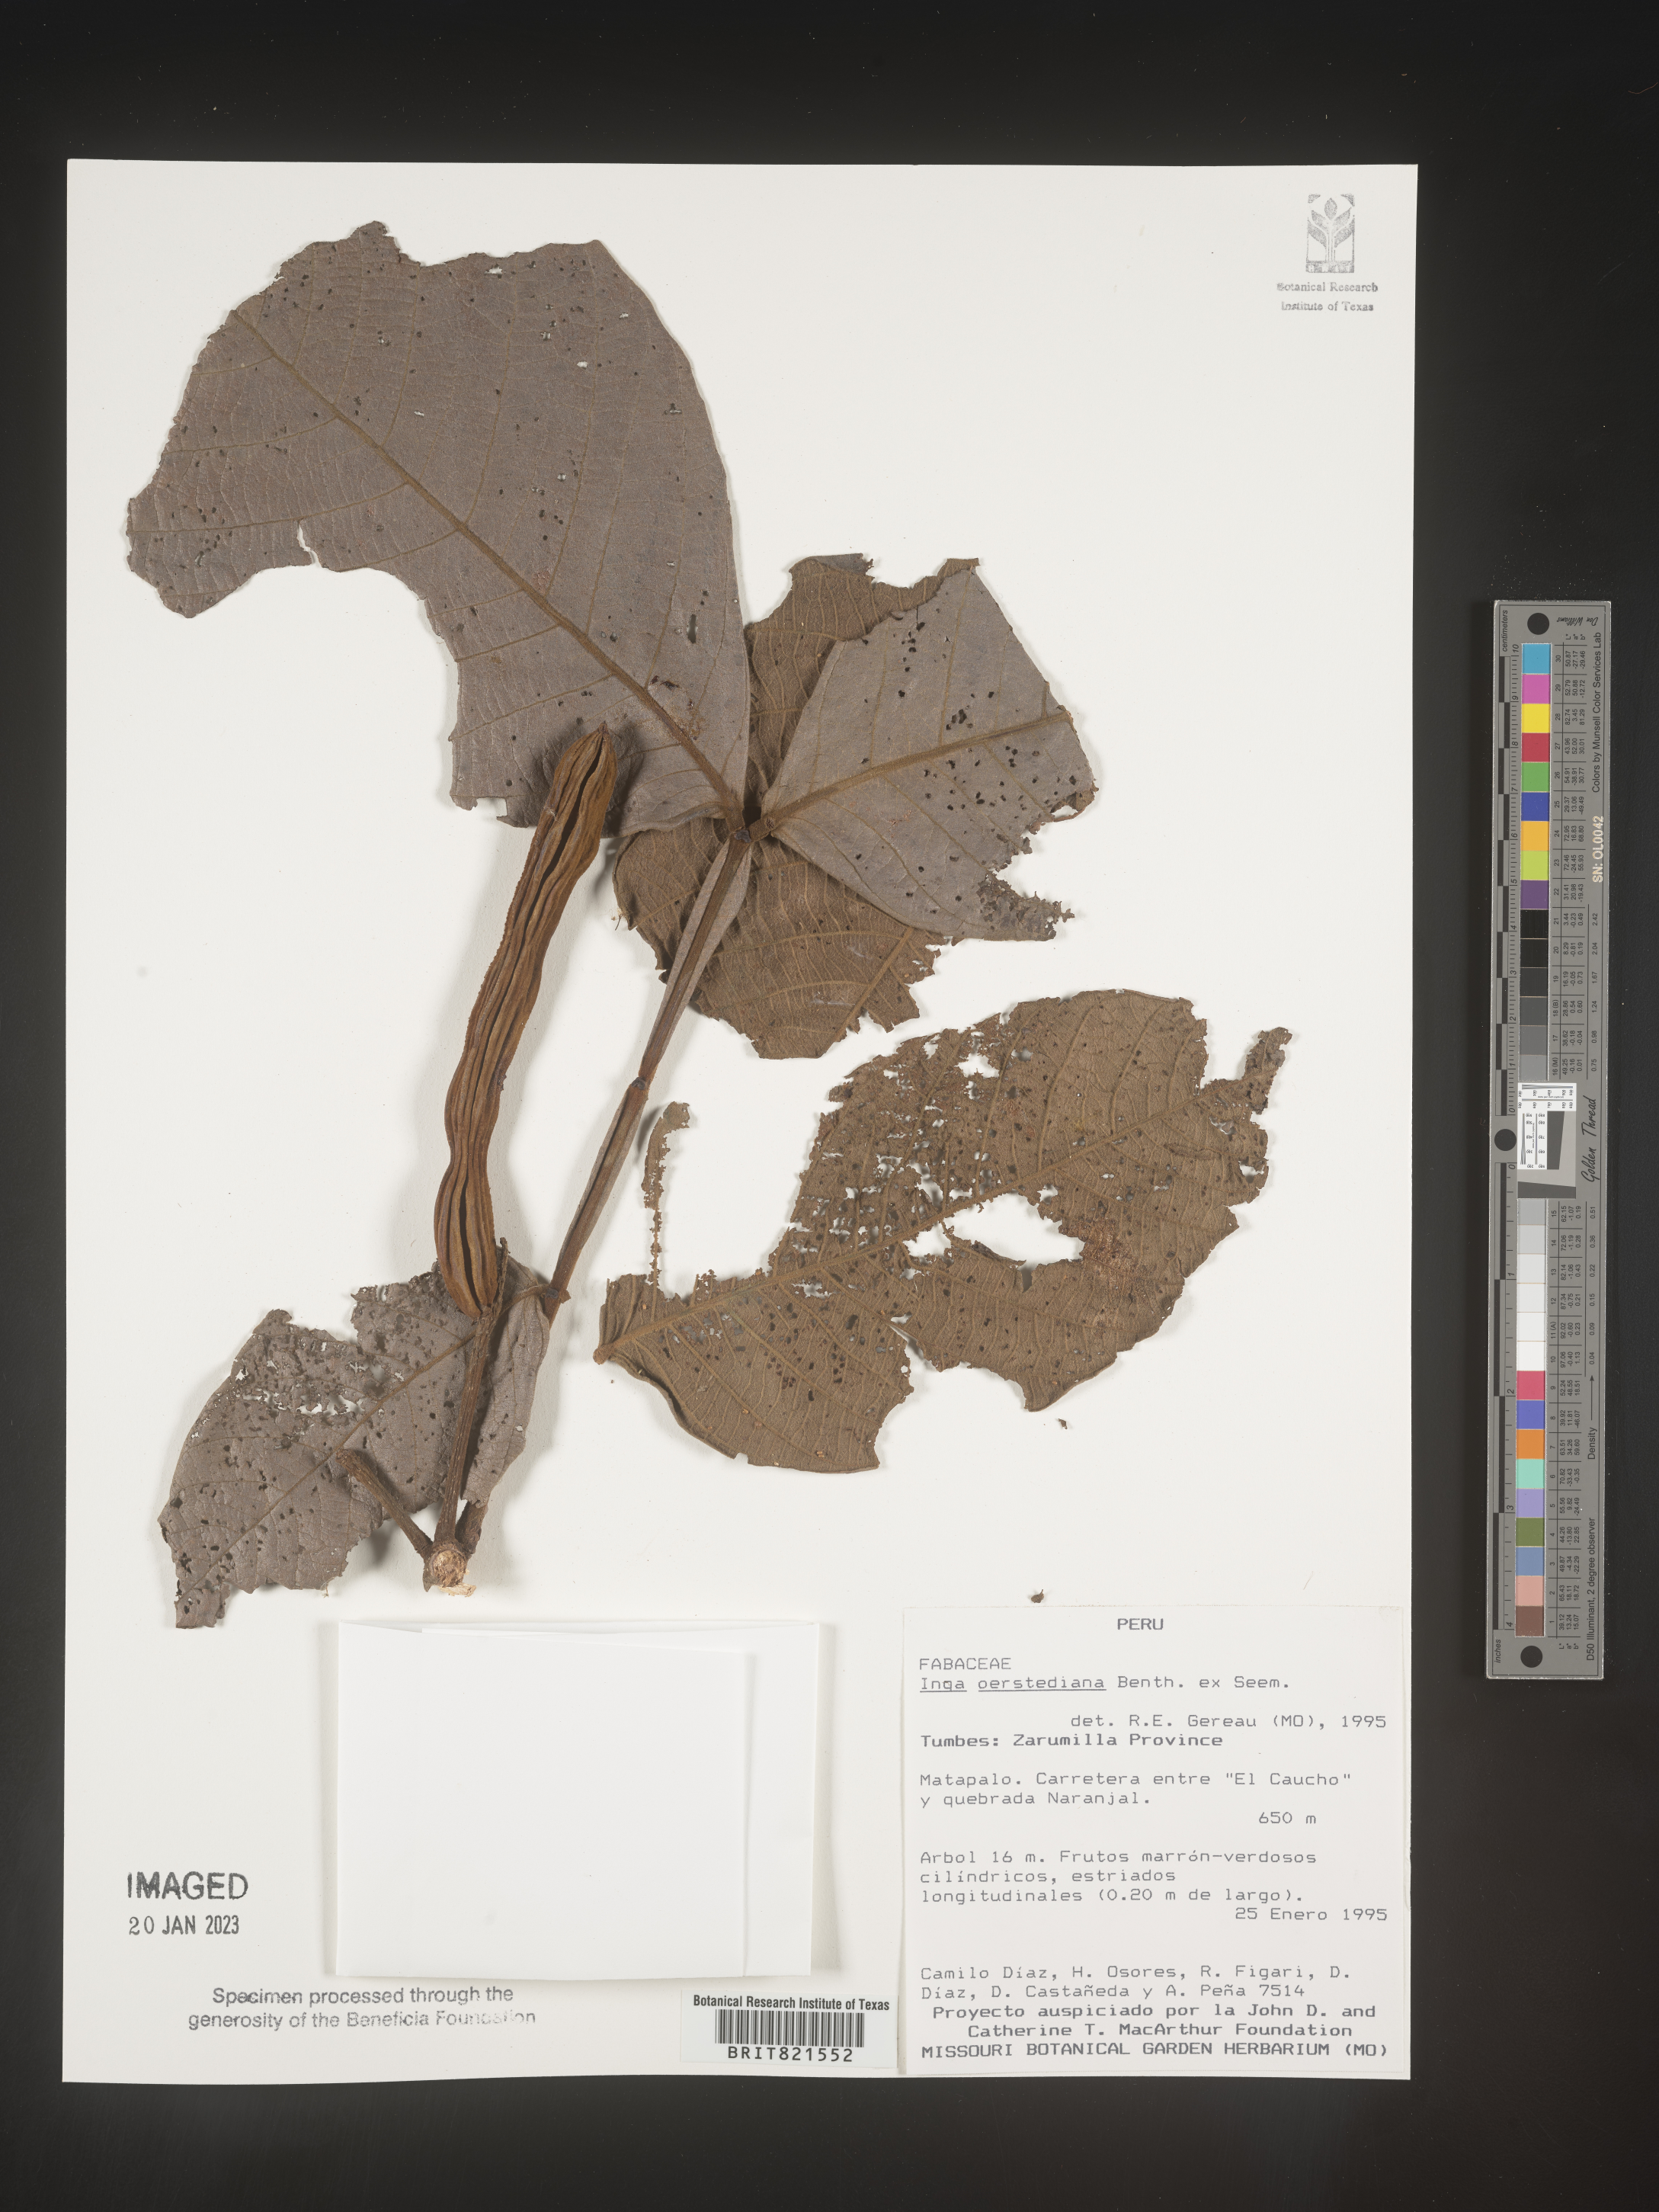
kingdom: Plantae
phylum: Tracheophyta
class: Magnoliopsida
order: Fabales
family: Fabaceae
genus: Inga
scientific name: Inga
